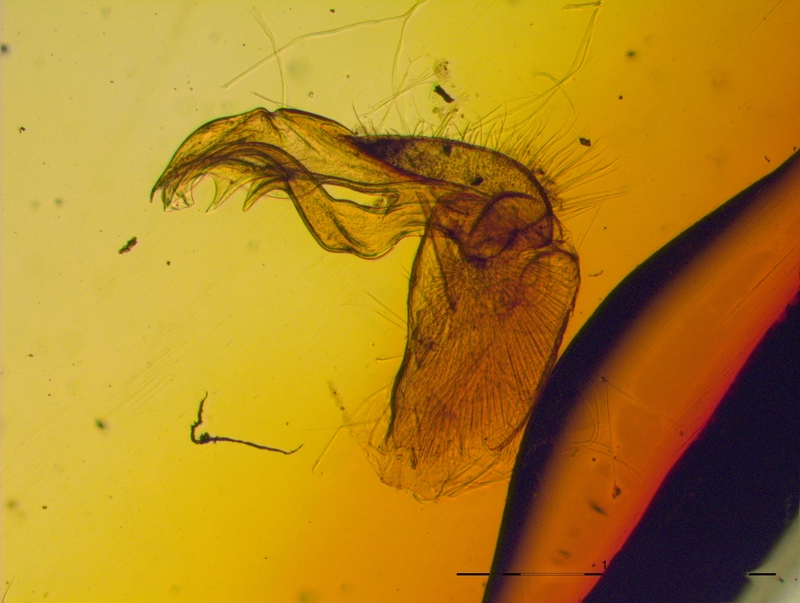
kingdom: Animalia
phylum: Arthropoda
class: Diplopoda
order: Polydesmida
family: Chelodesmidae
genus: Leptodesmus
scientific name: Leptodesmus ruidus
